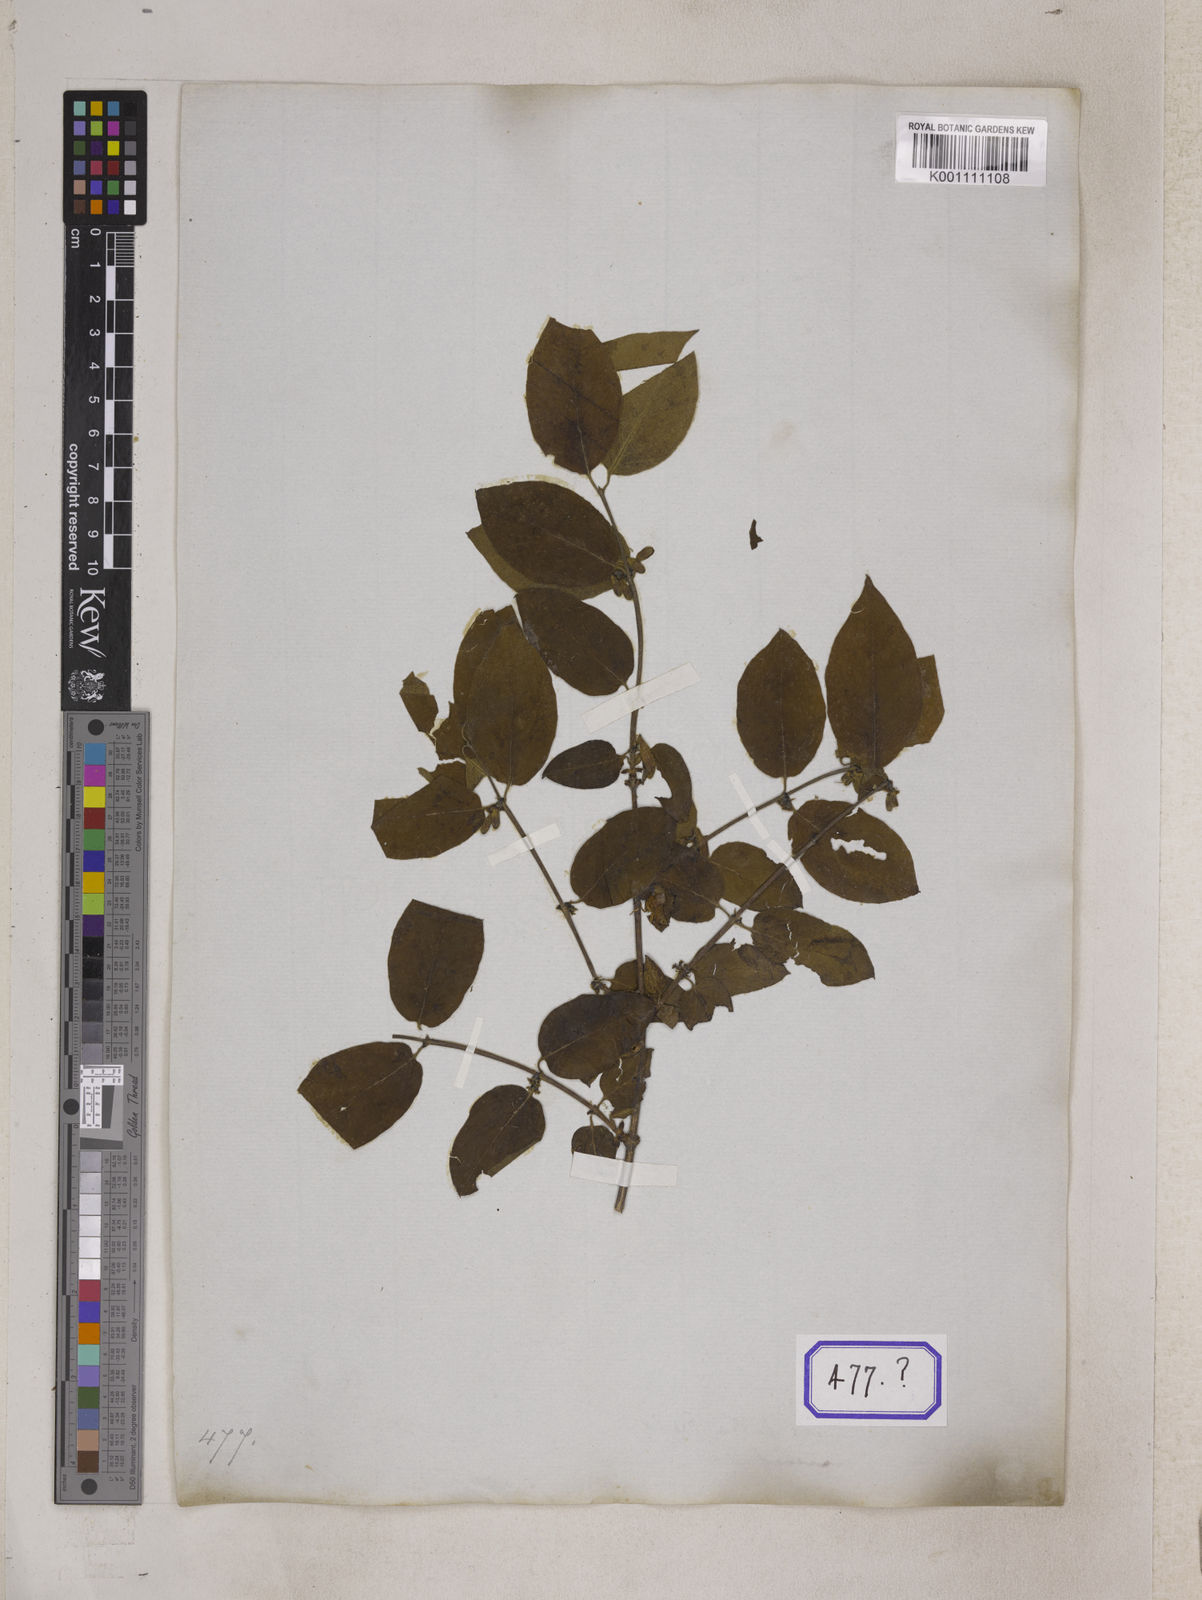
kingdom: Plantae
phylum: Tracheophyta
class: Magnoliopsida
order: Dipsacales
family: Caprifoliaceae
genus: Lonicera
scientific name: Lonicera quinquelocularis
